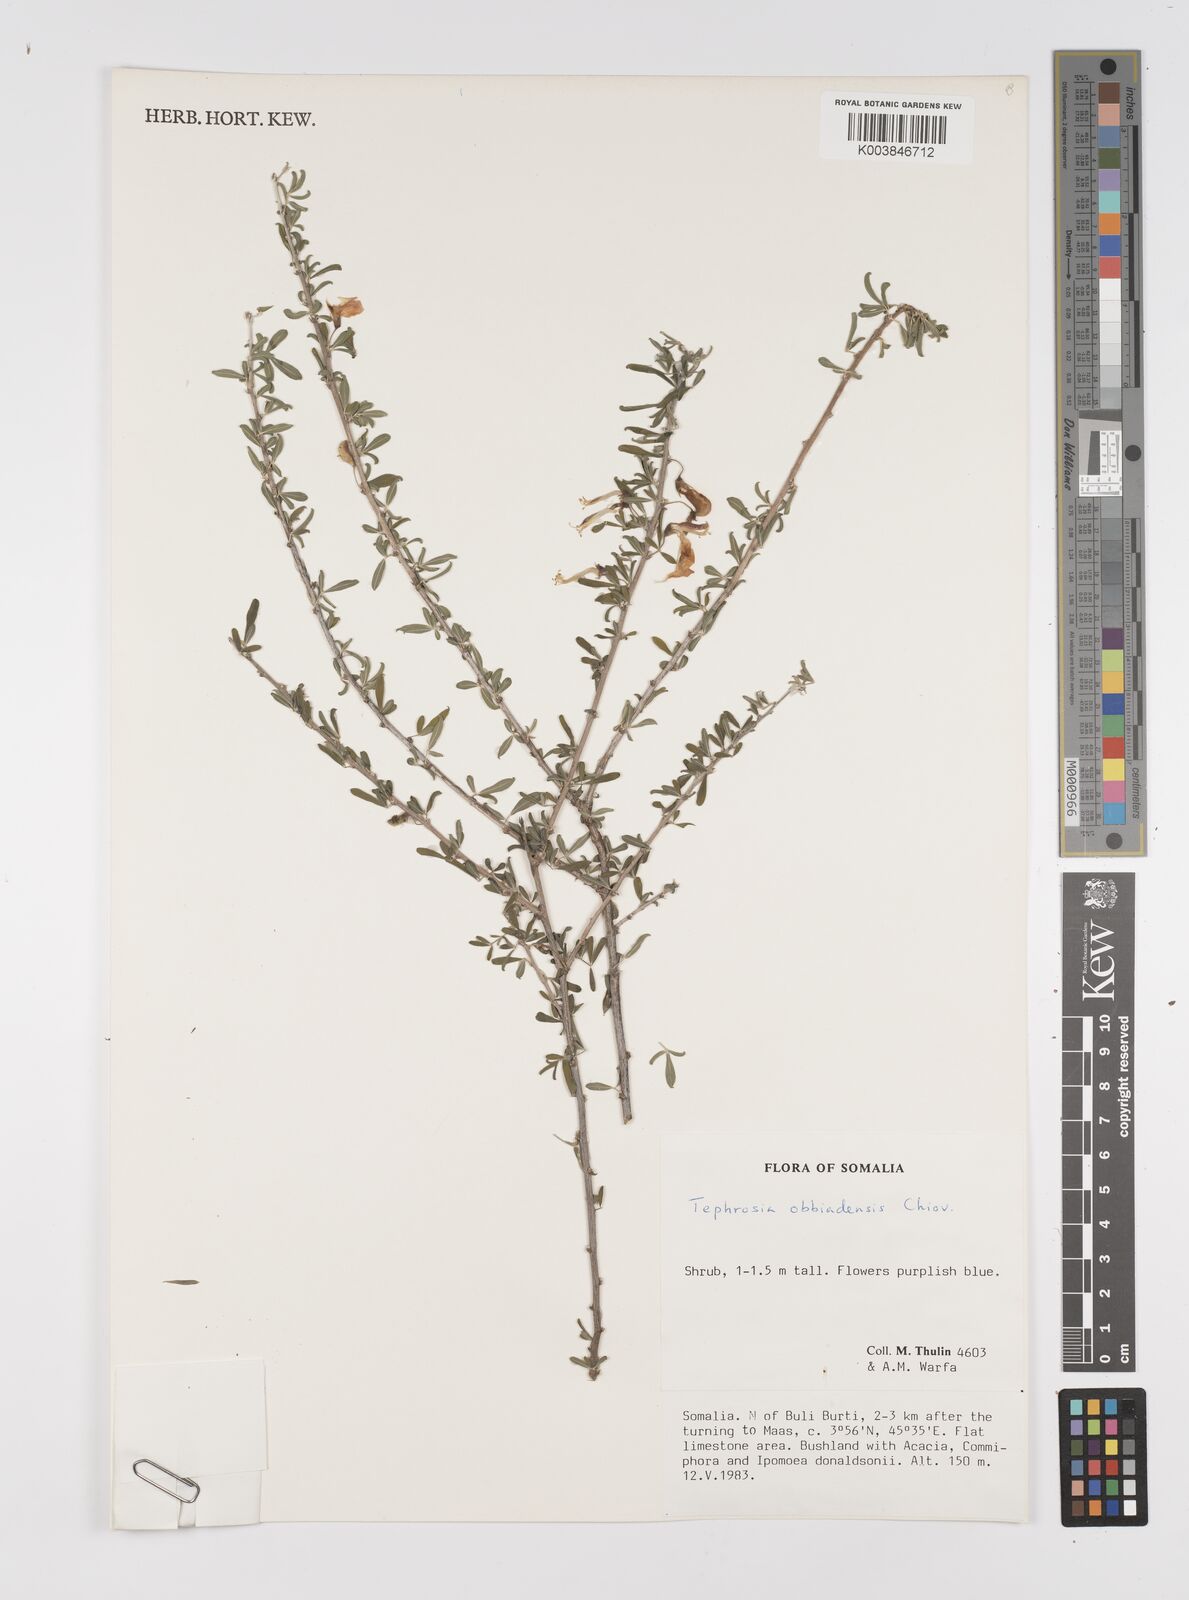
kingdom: Plantae
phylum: Tracheophyta
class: Magnoliopsida
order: Fabales
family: Fabaceae
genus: Tephrosia
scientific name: Tephrosia obbiadensis
